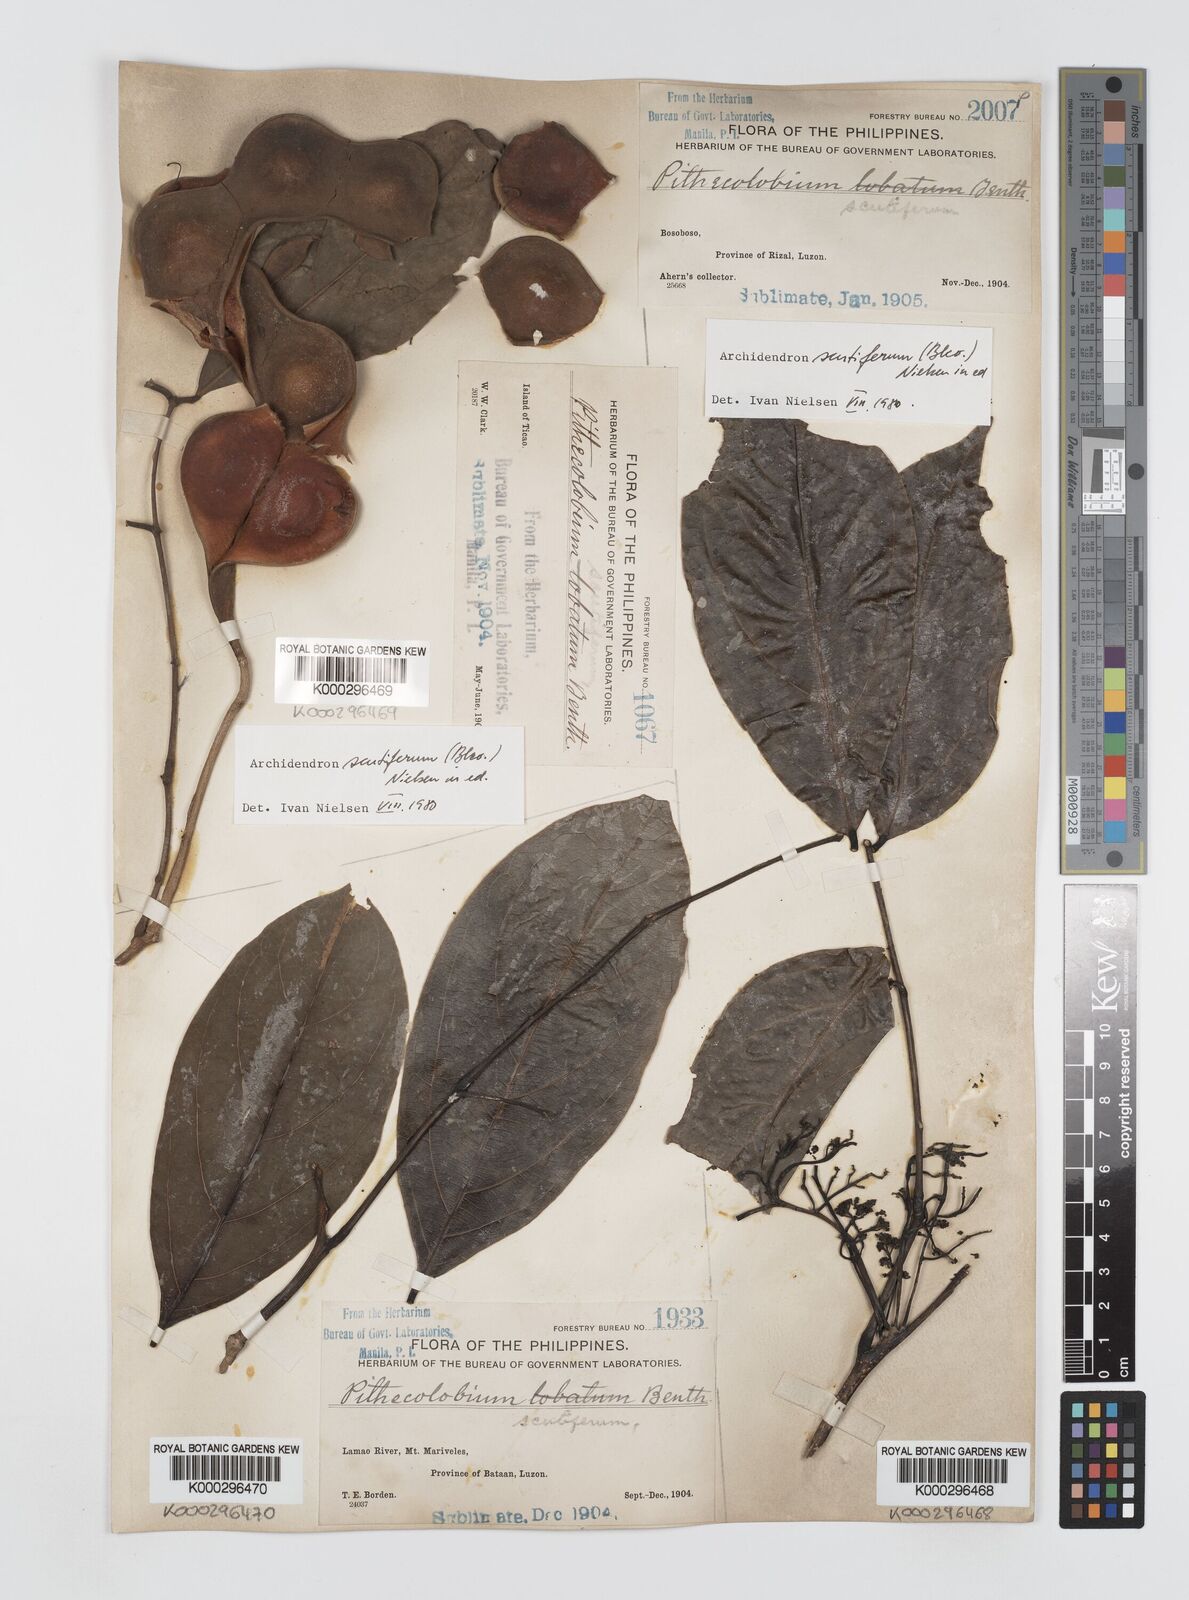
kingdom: Plantae
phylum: Tracheophyta
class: Magnoliopsida
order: Fabales
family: Fabaceae
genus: Archidendron
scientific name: Archidendron scutiferum
